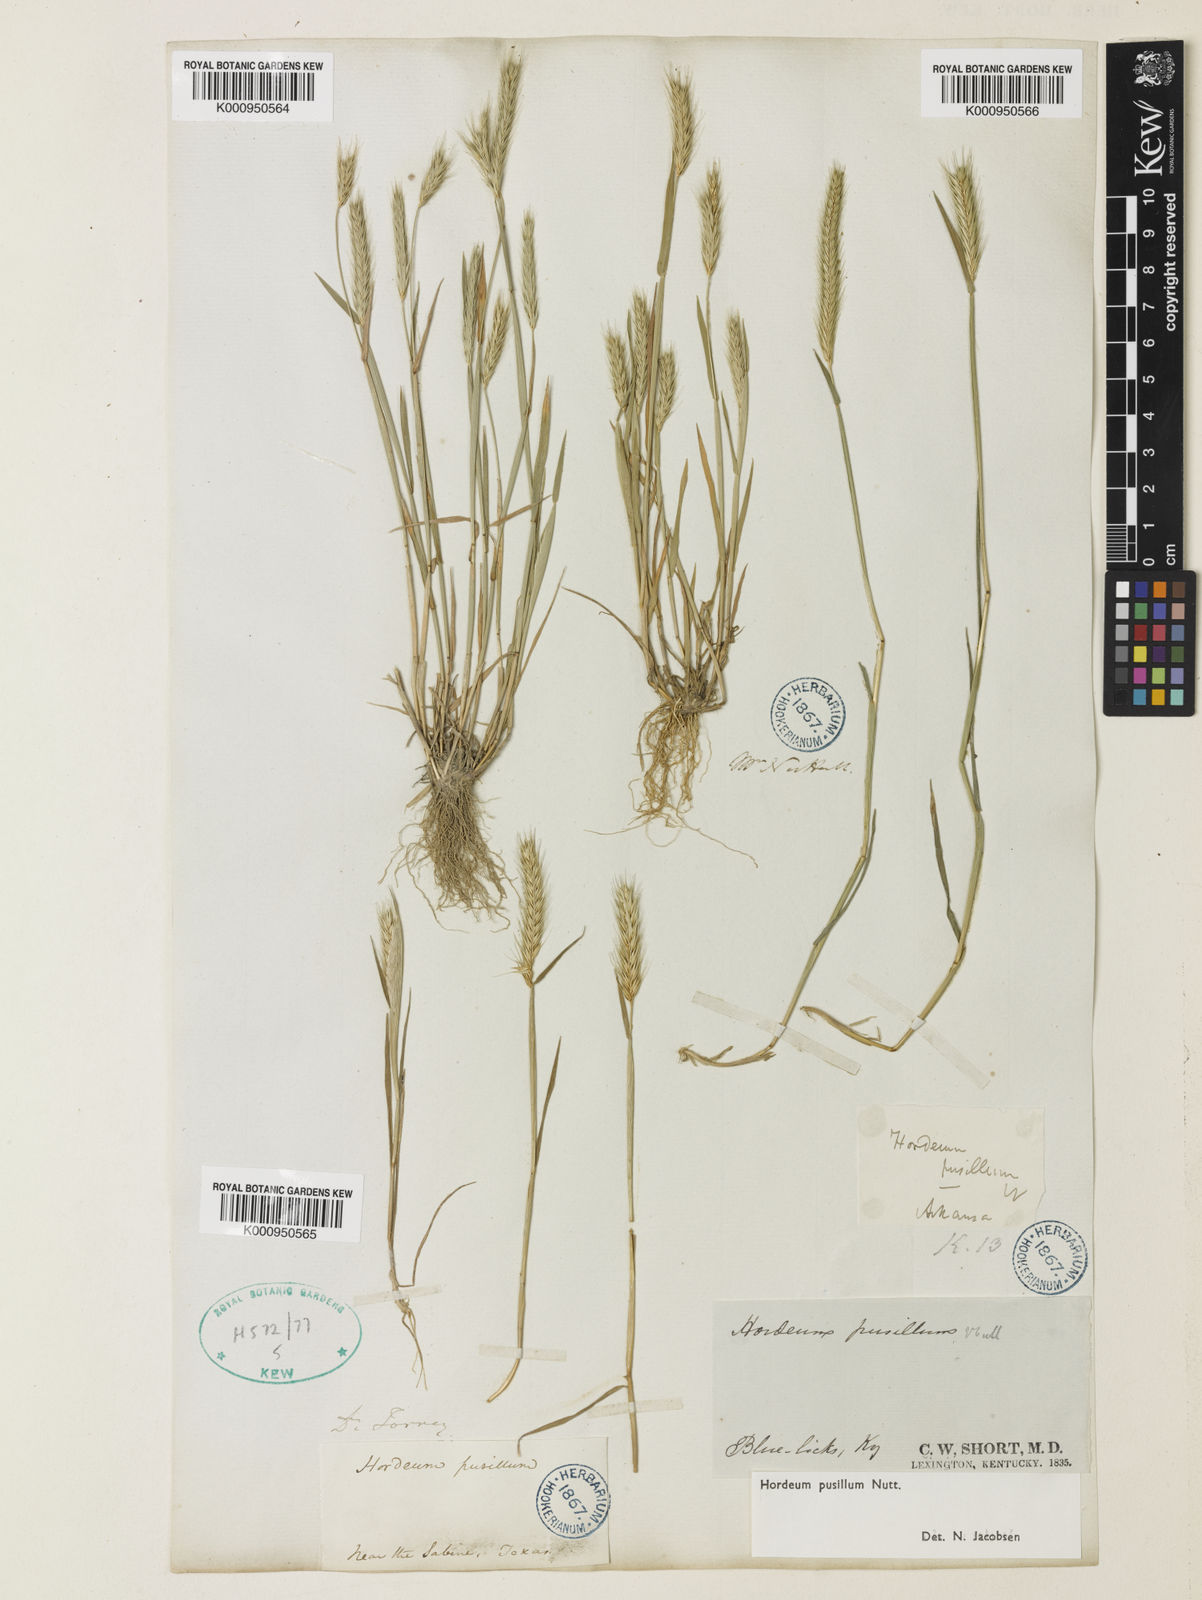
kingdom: Plantae
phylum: Tracheophyta
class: Liliopsida
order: Poales
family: Poaceae
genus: Hordeum
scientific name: Hordeum pusillum
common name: Little barley
